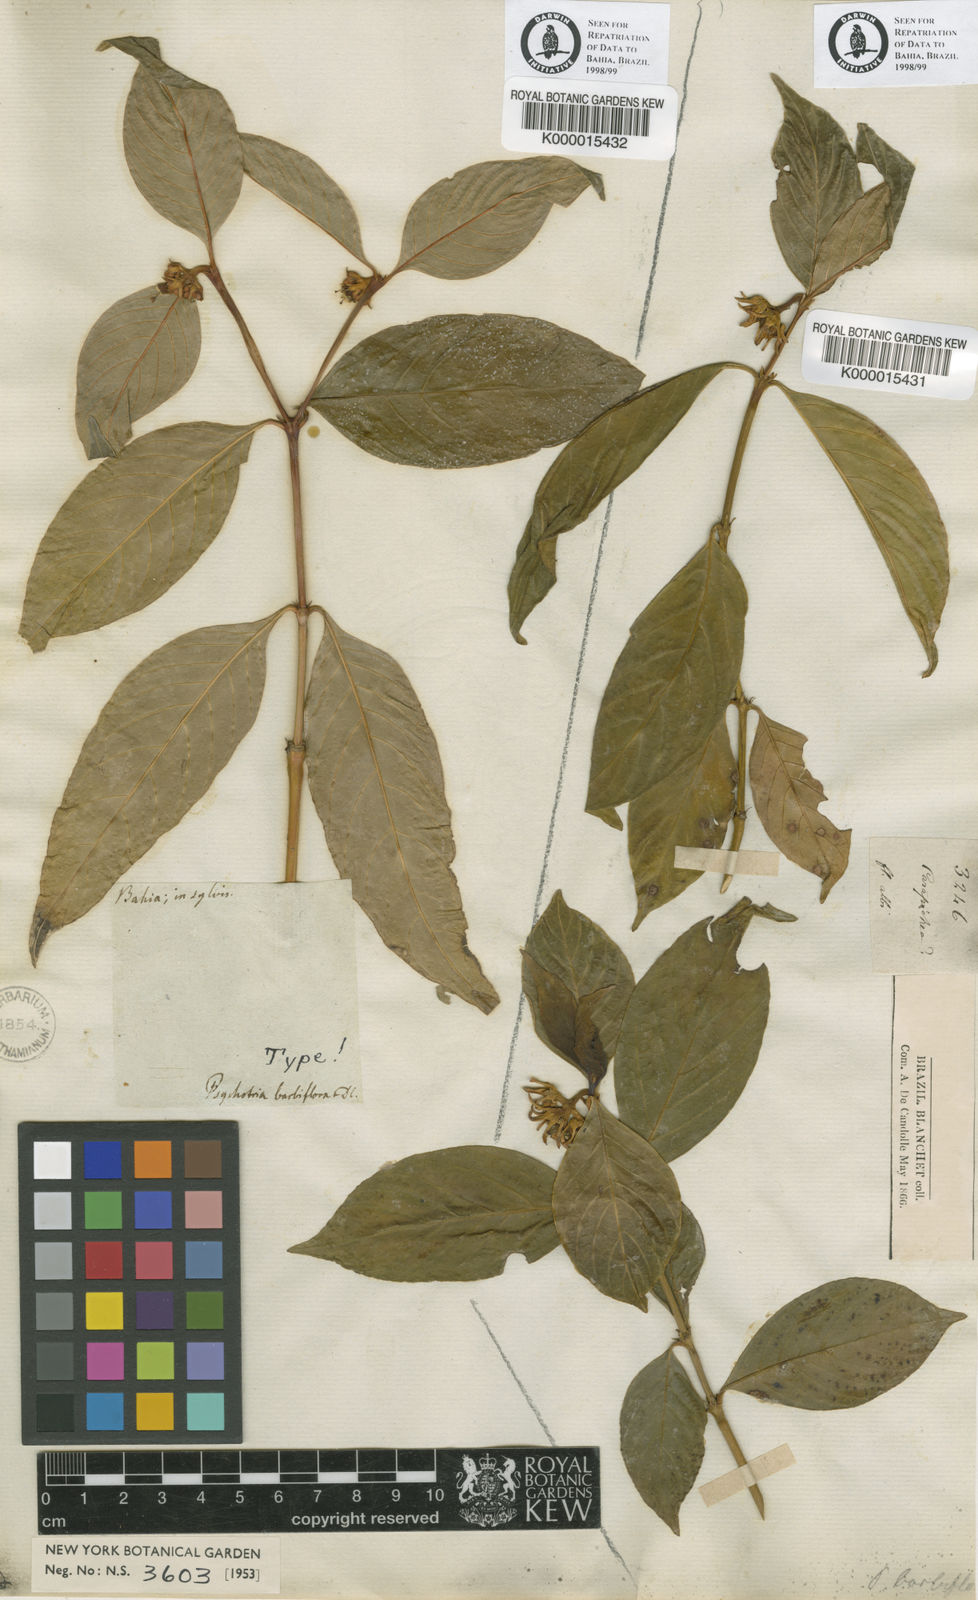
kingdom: Plantae
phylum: Tracheophyta
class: Magnoliopsida
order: Gentianales
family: Rubiaceae
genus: Palicourea
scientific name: Palicourea hoffmannseggiana
